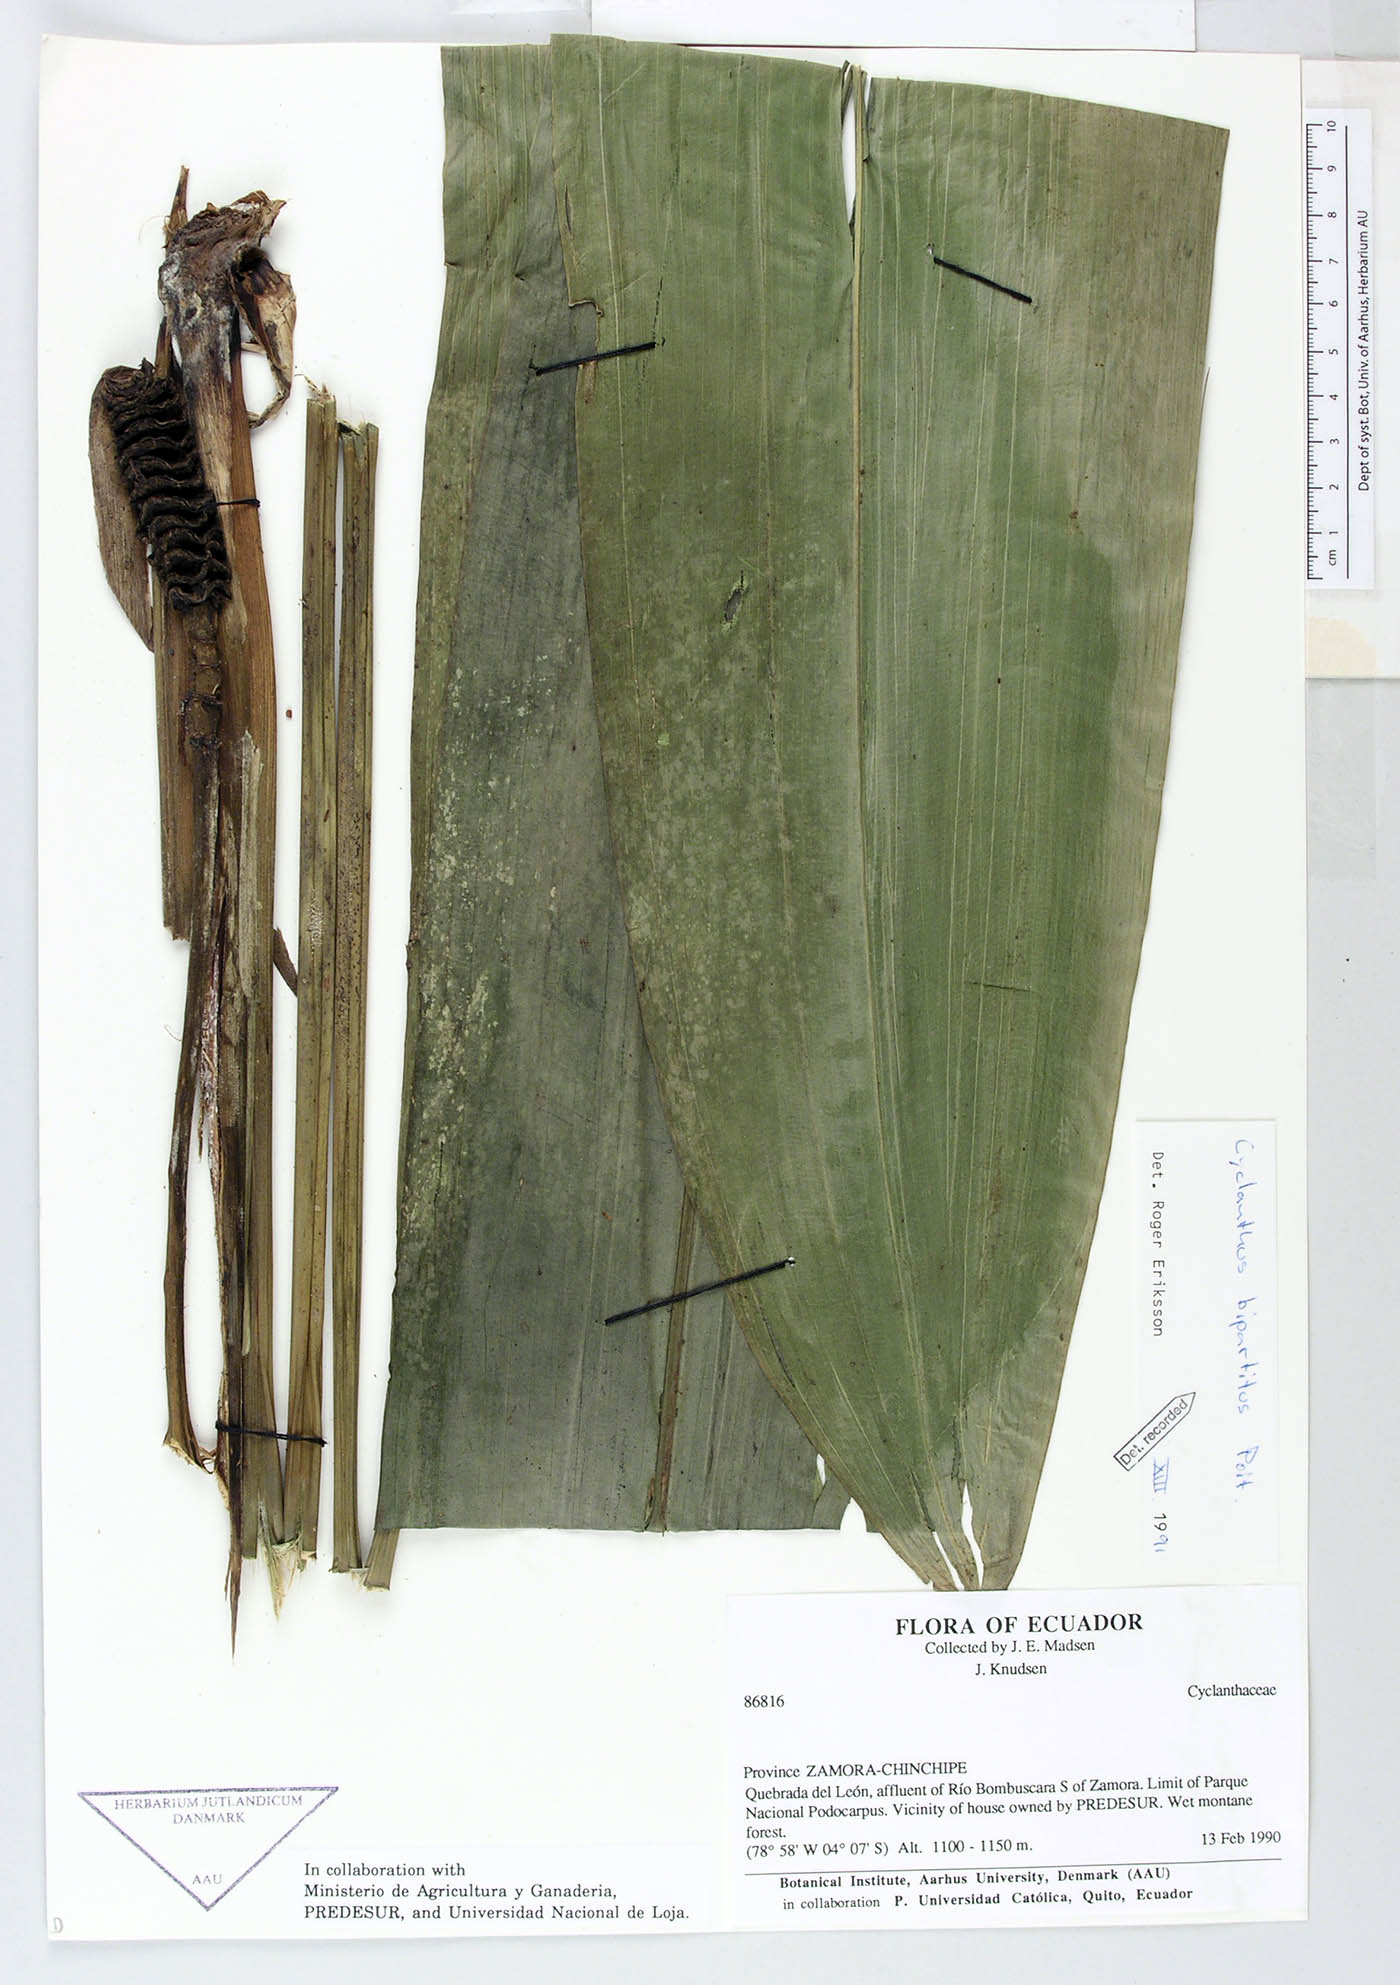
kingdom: Plantae
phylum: Tracheophyta
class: Liliopsida
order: Pandanales
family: Cyclanthaceae
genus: Cyclanthus
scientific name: Cyclanthus bipartitus
